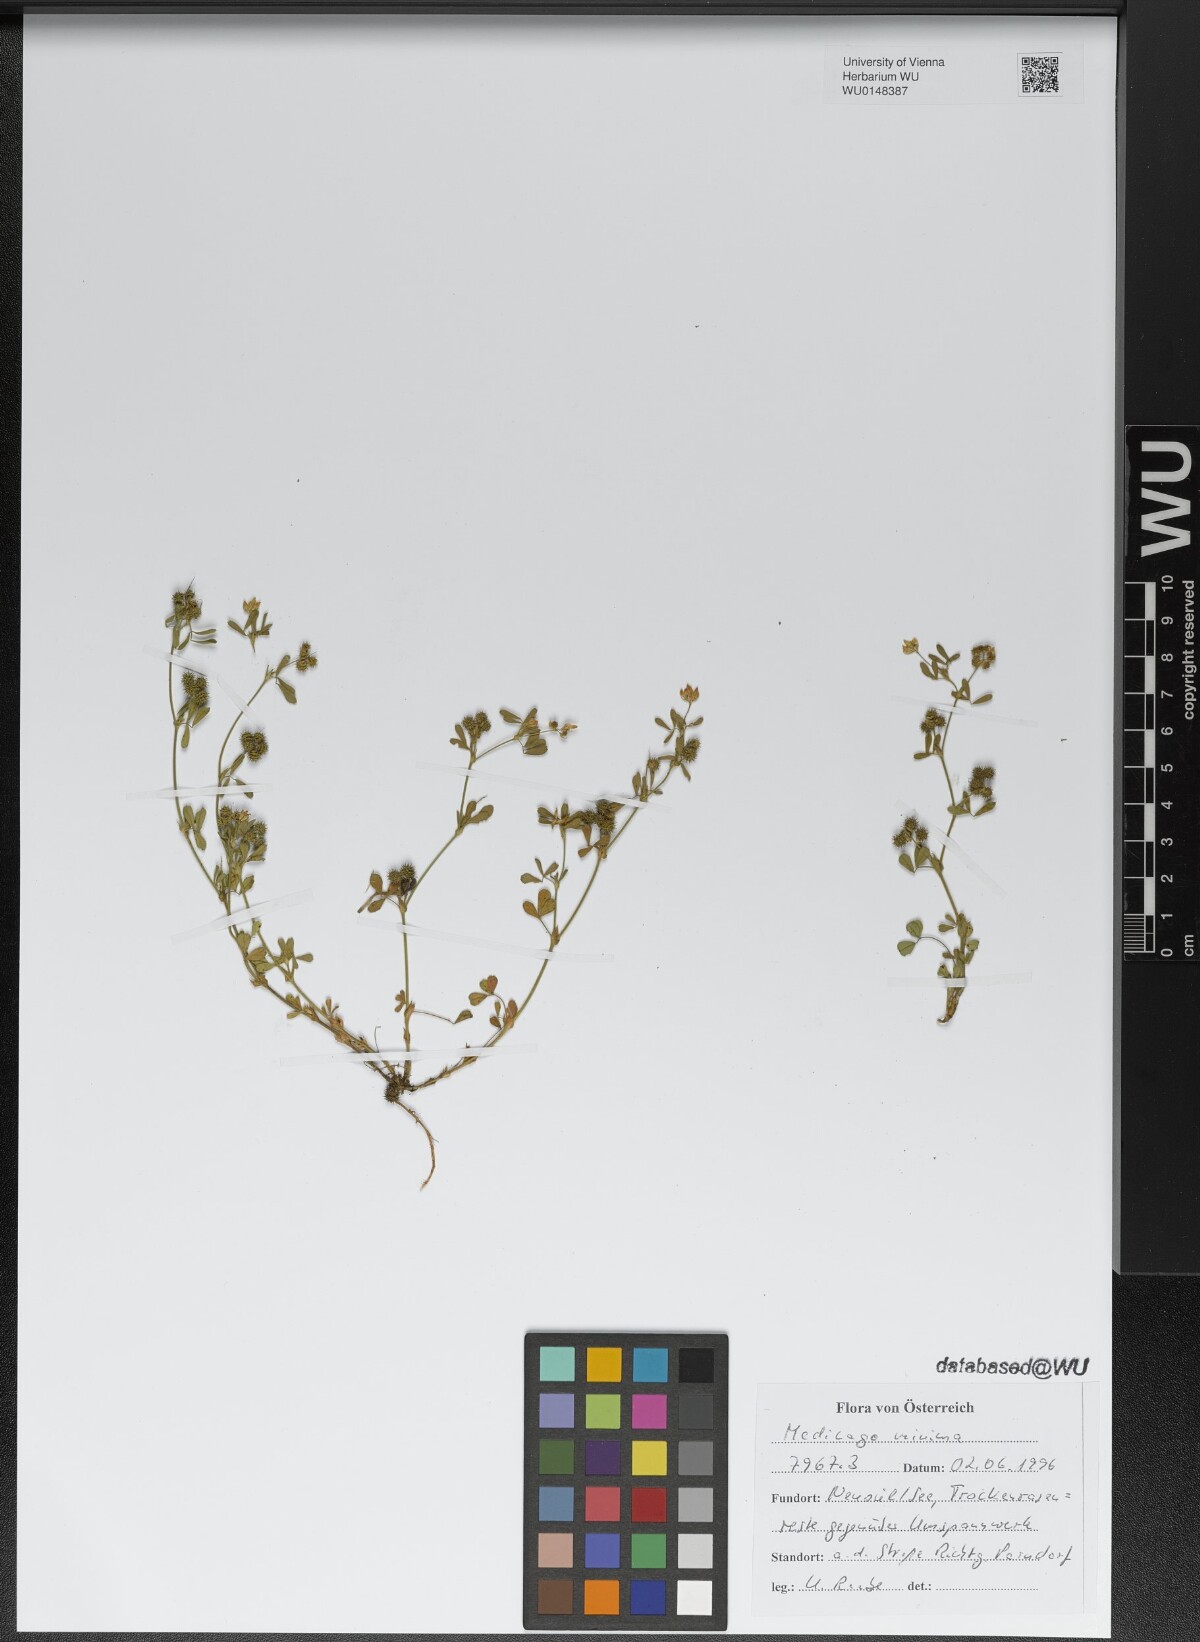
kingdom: Plantae
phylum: Tracheophyta
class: Magnoliopsida
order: Fabales
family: Fabaceae
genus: Medicago
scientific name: Medicago minima
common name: Little bur-clover
